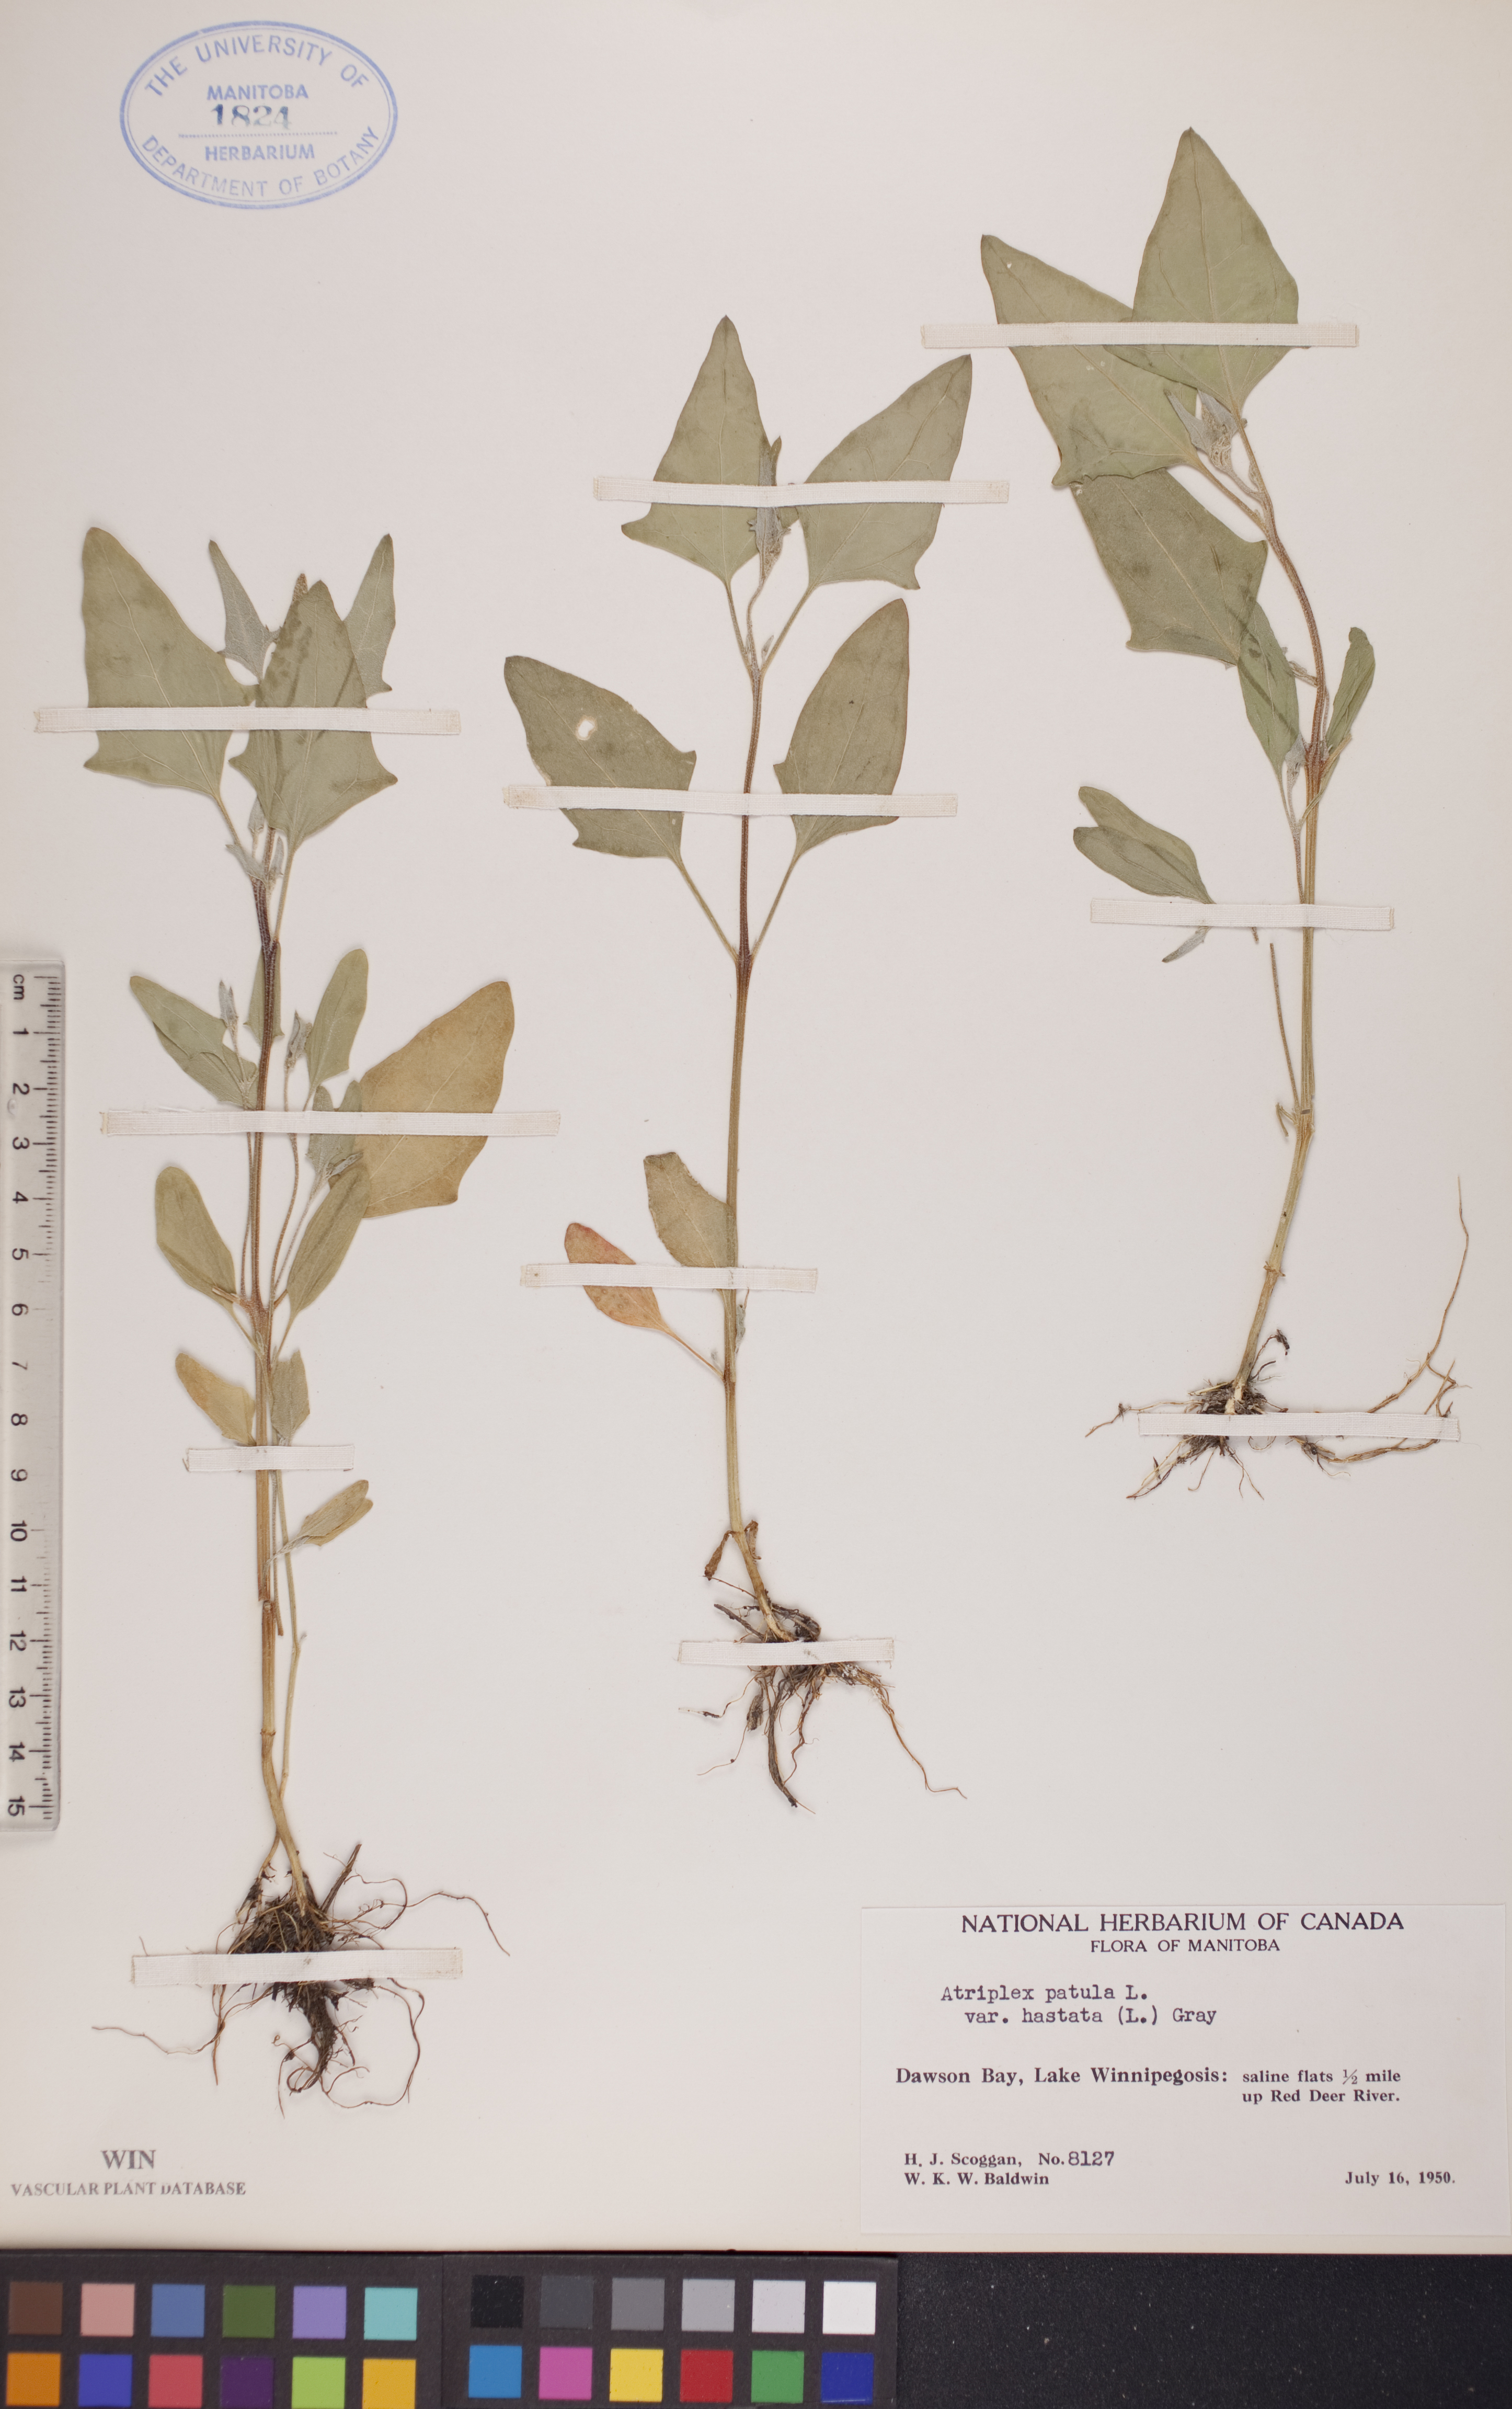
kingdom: Plantae
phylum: Tracheophyta
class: Magnoliopsida
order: Caryophyllales
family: Amaranthaceae
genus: Atriplex
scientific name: Atriplex
